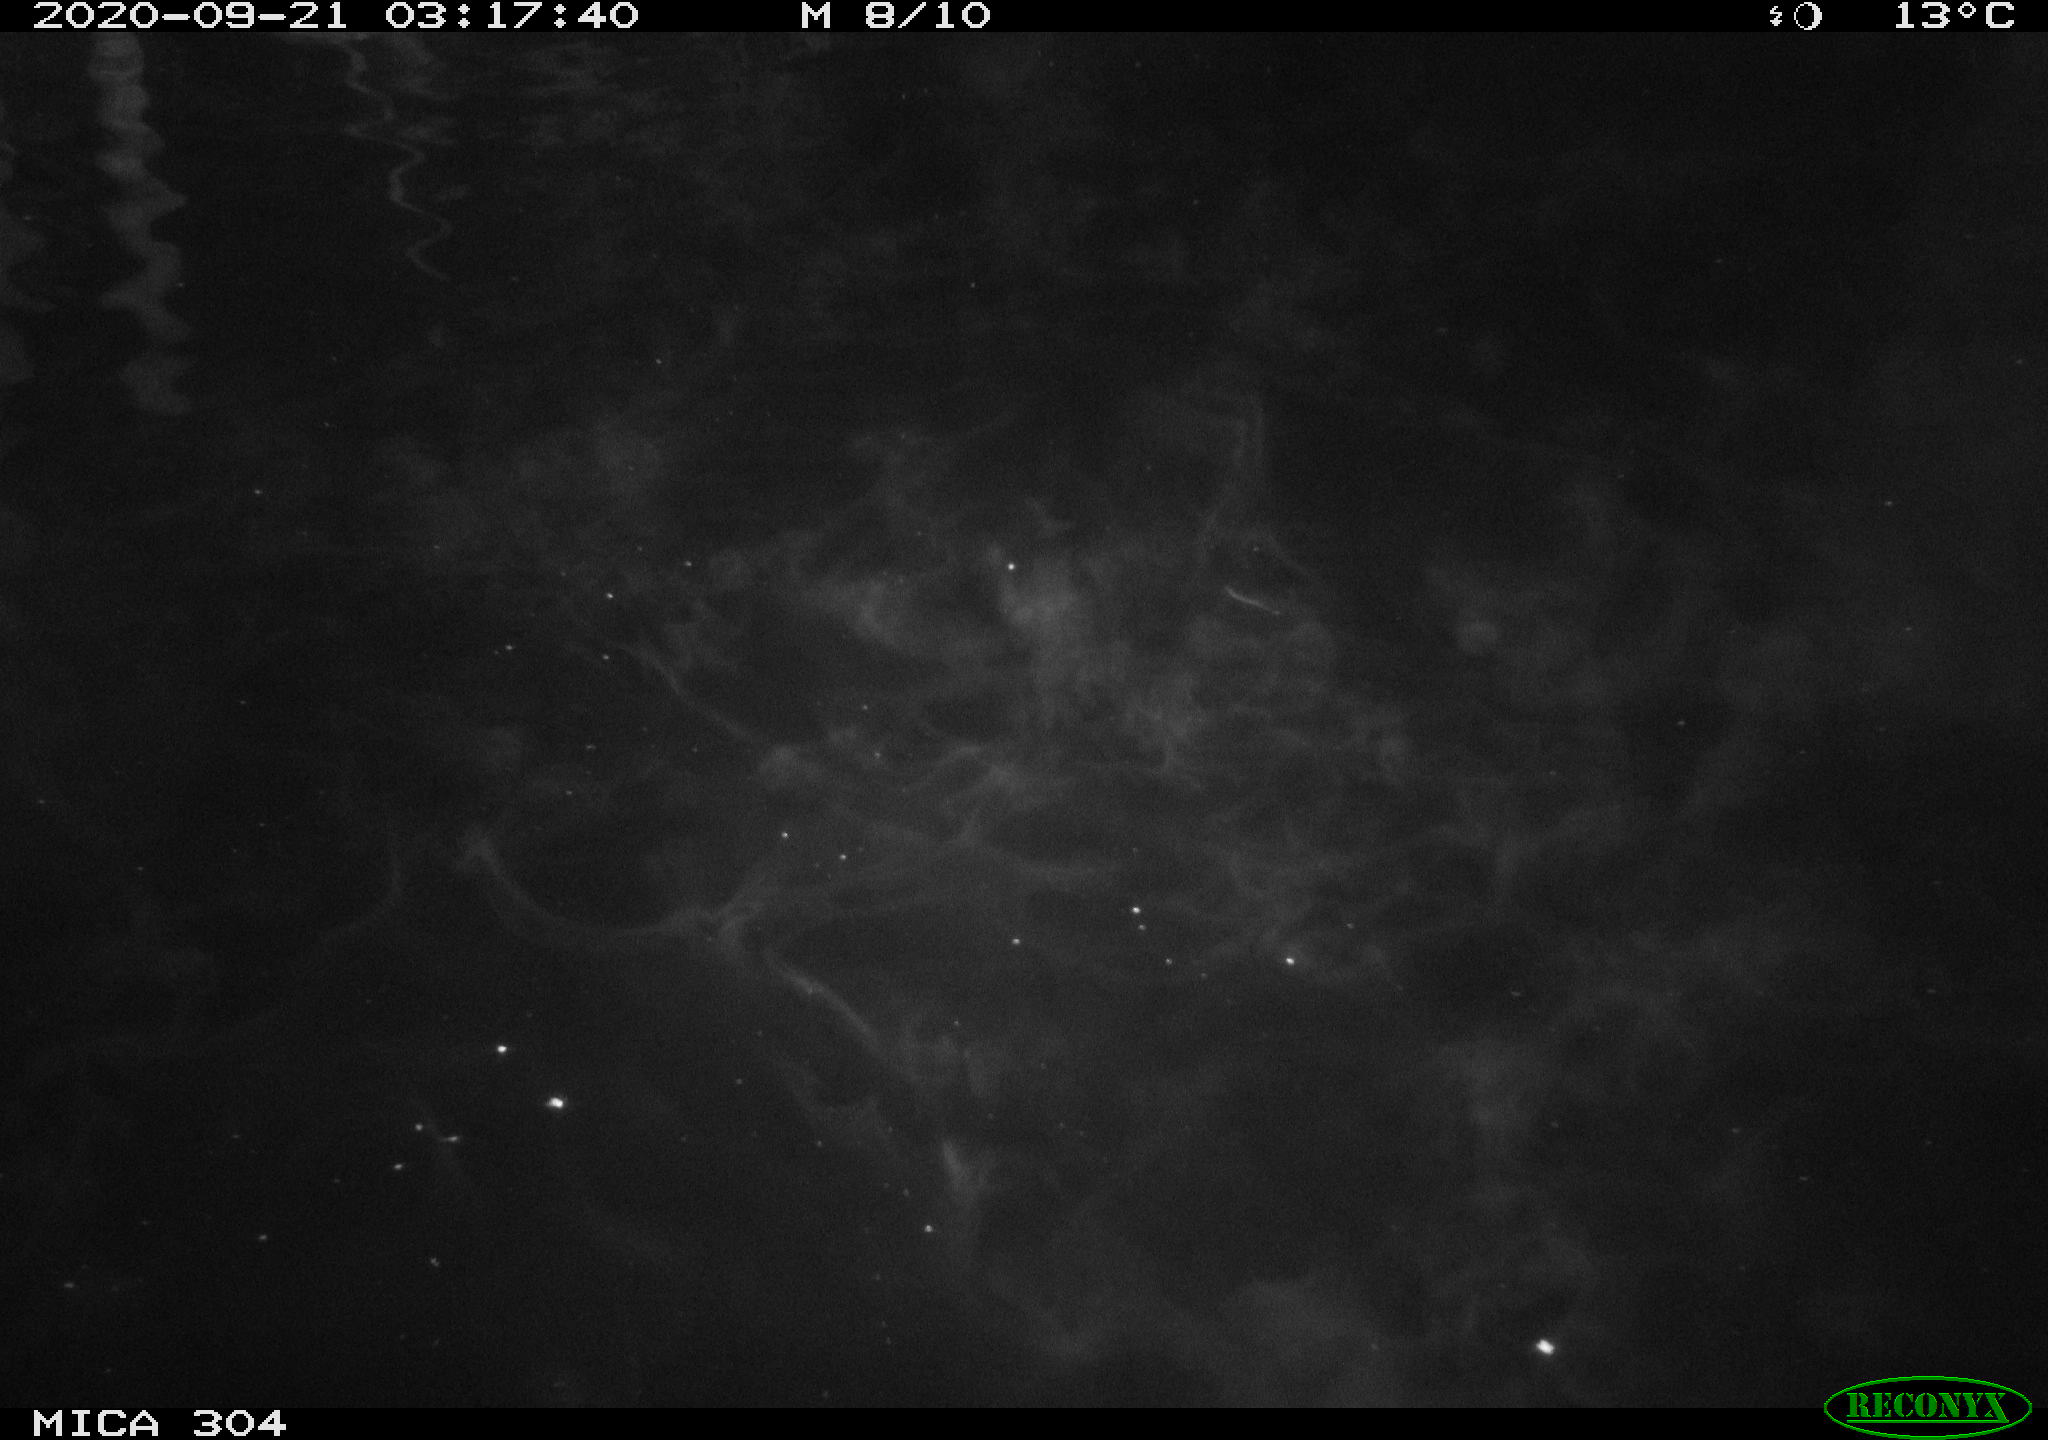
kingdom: Animalia
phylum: Chordata
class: Mammalia
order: Rodentia
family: Cricetidae
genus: Ondatra
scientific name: Ondatra zibethicus
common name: Muskrat
